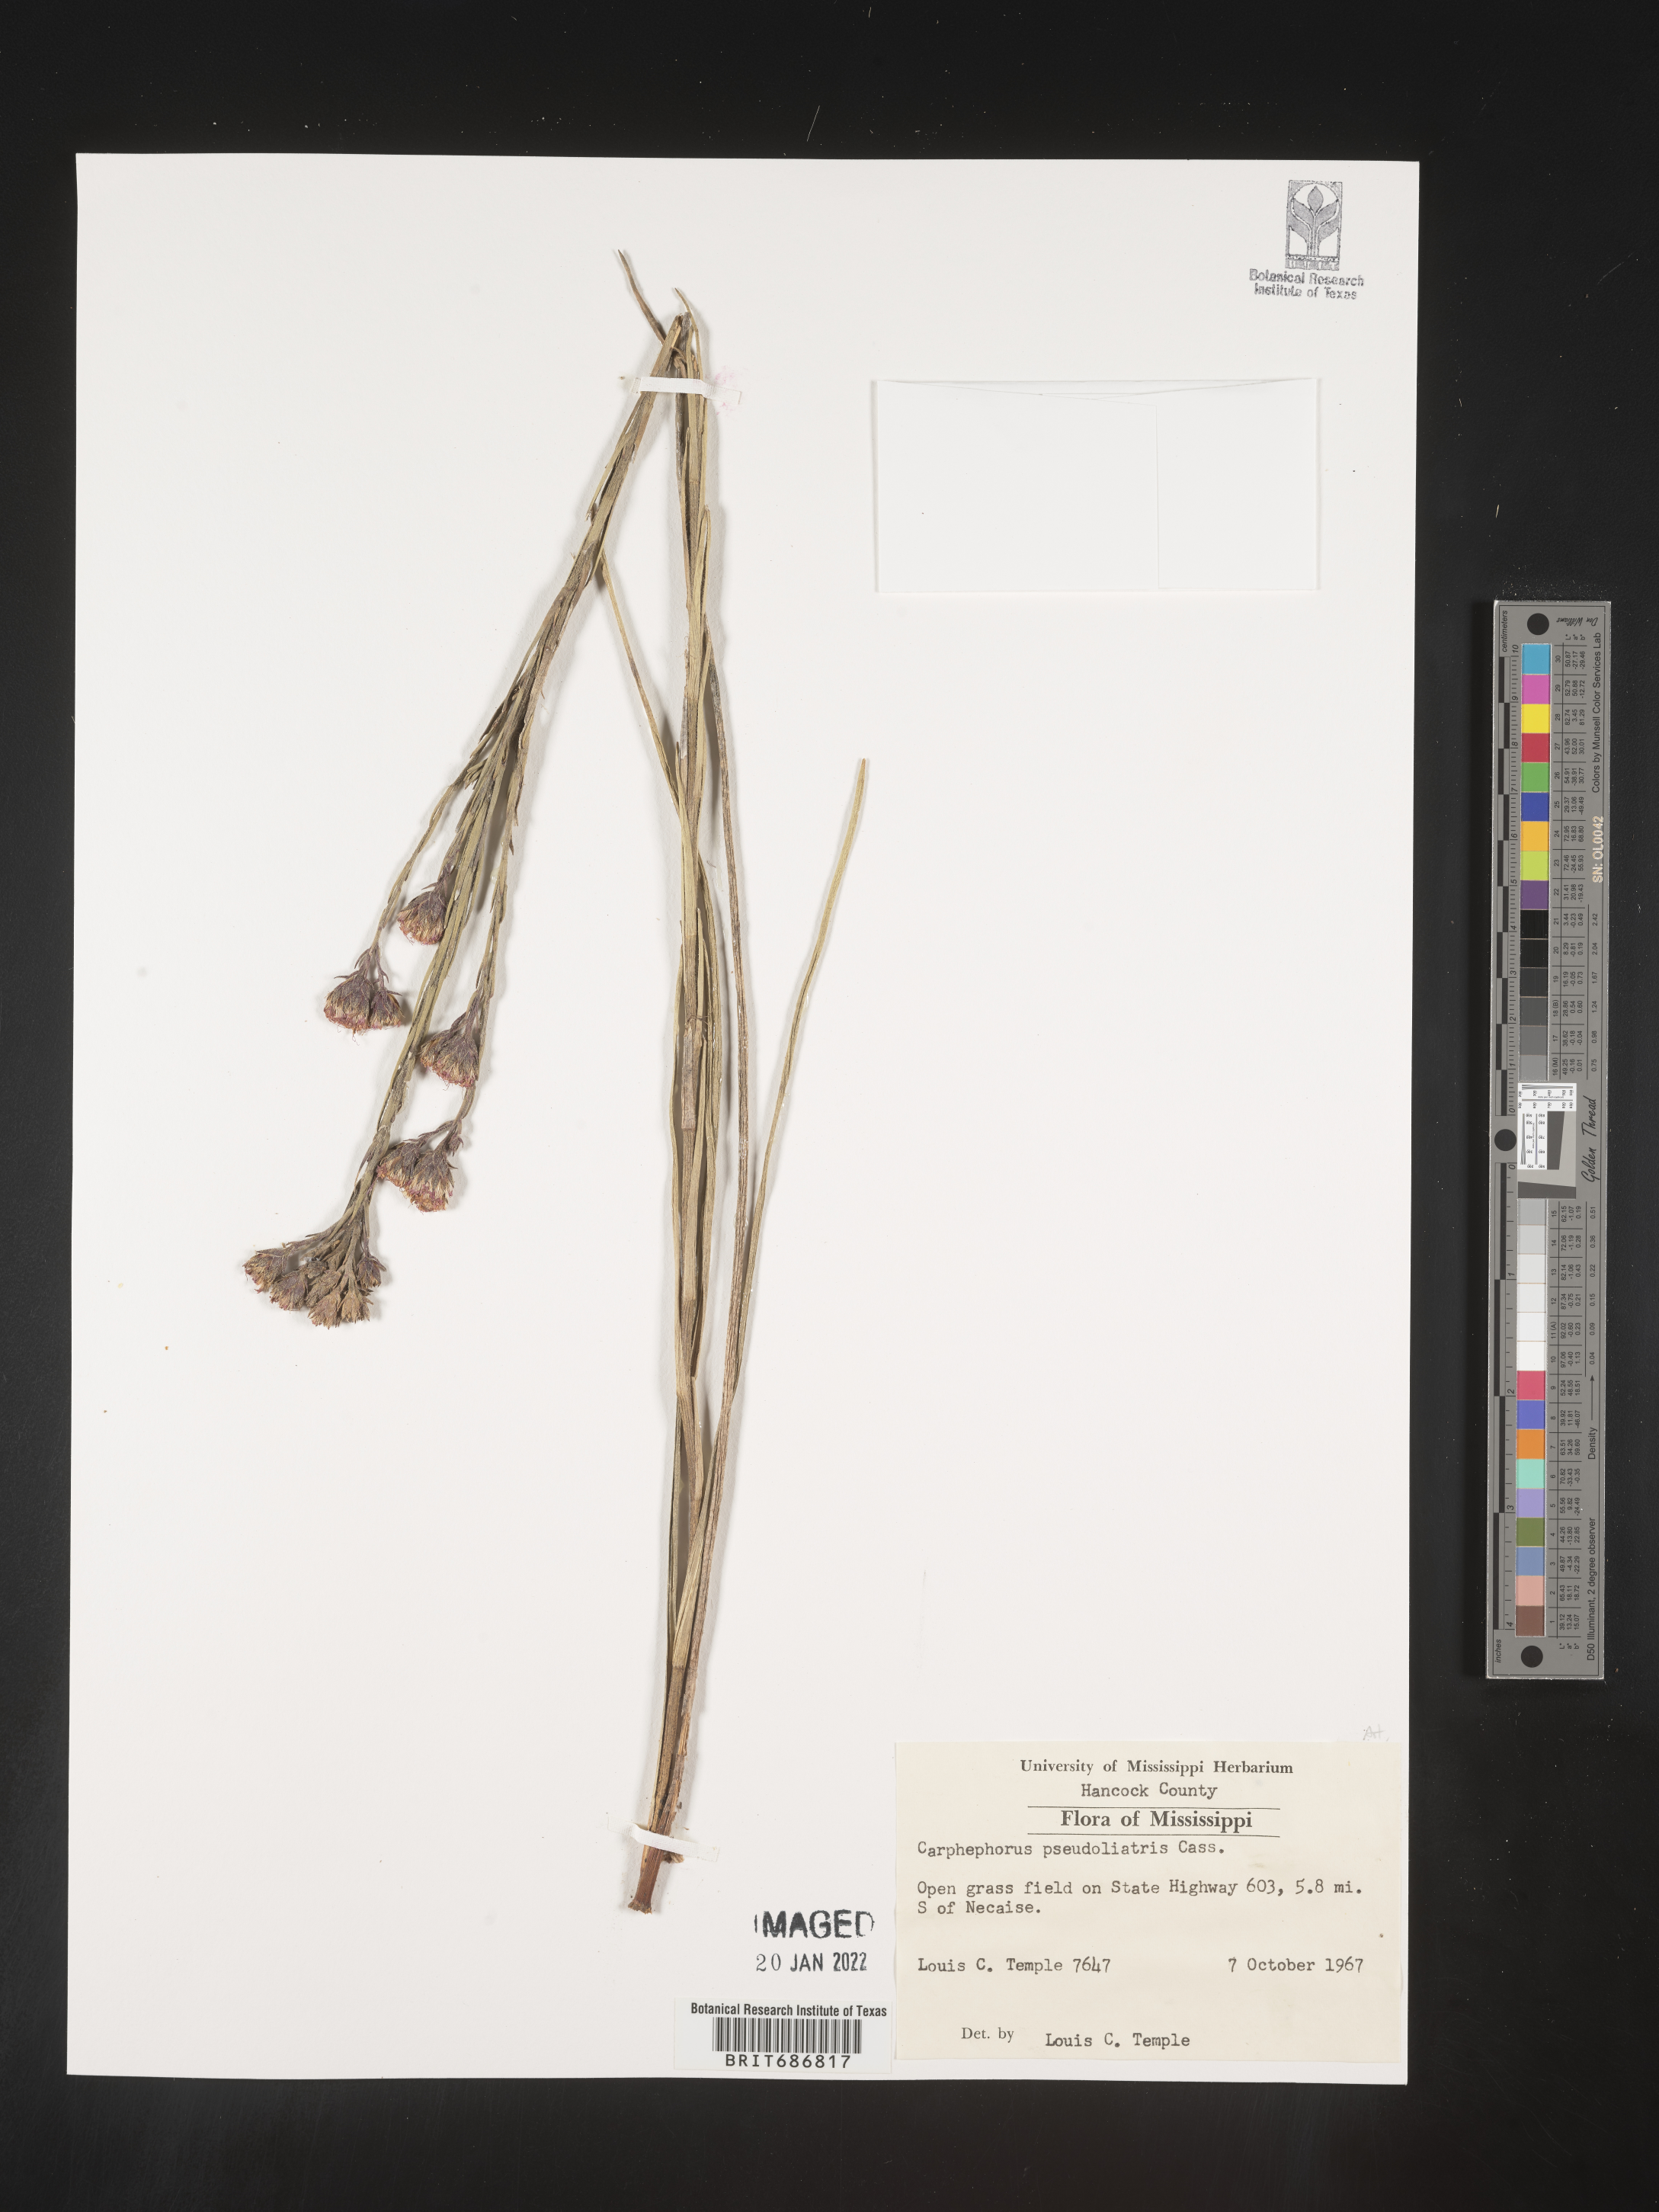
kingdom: Plantae
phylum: Tracheophyta
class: Magnoliopsida
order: Asterales
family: Asteraceae
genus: Carphephorus
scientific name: Carphephorus pseudoliatris
